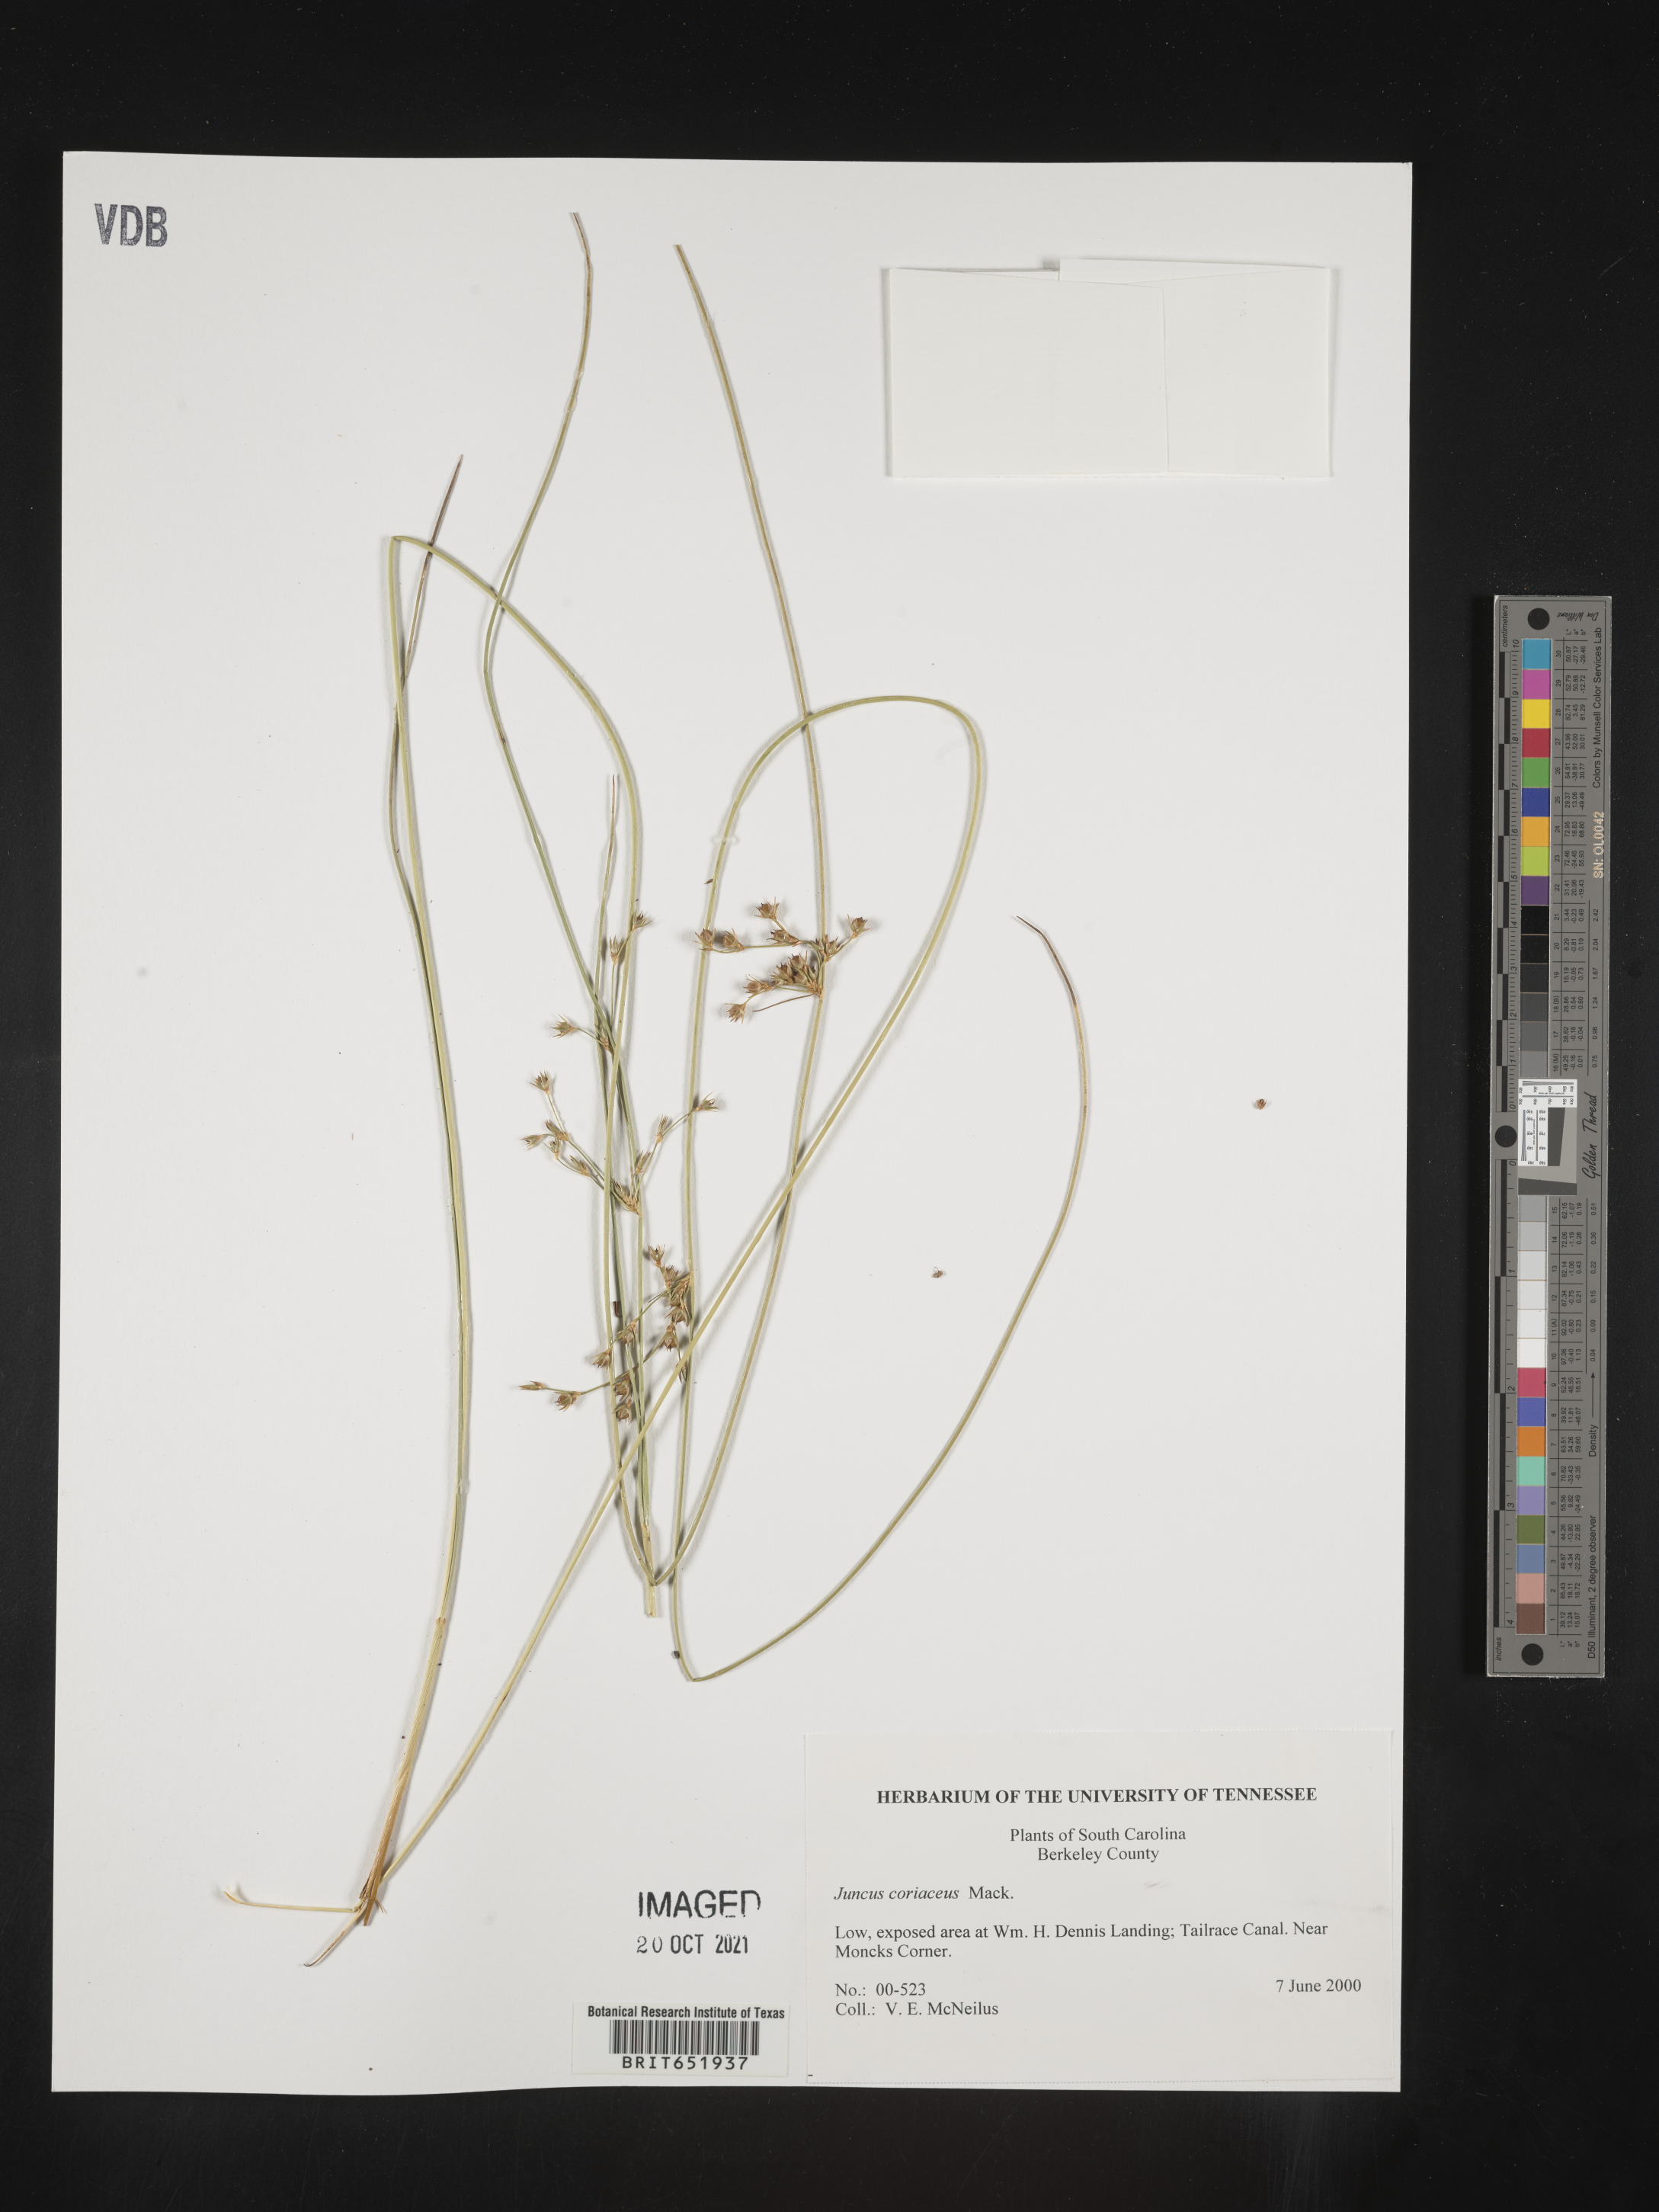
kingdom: Plantae
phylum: Tracheophyta
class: Liliopsida
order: Poales
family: Juncaceae
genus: Juncus
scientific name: Juncus coriaceus
